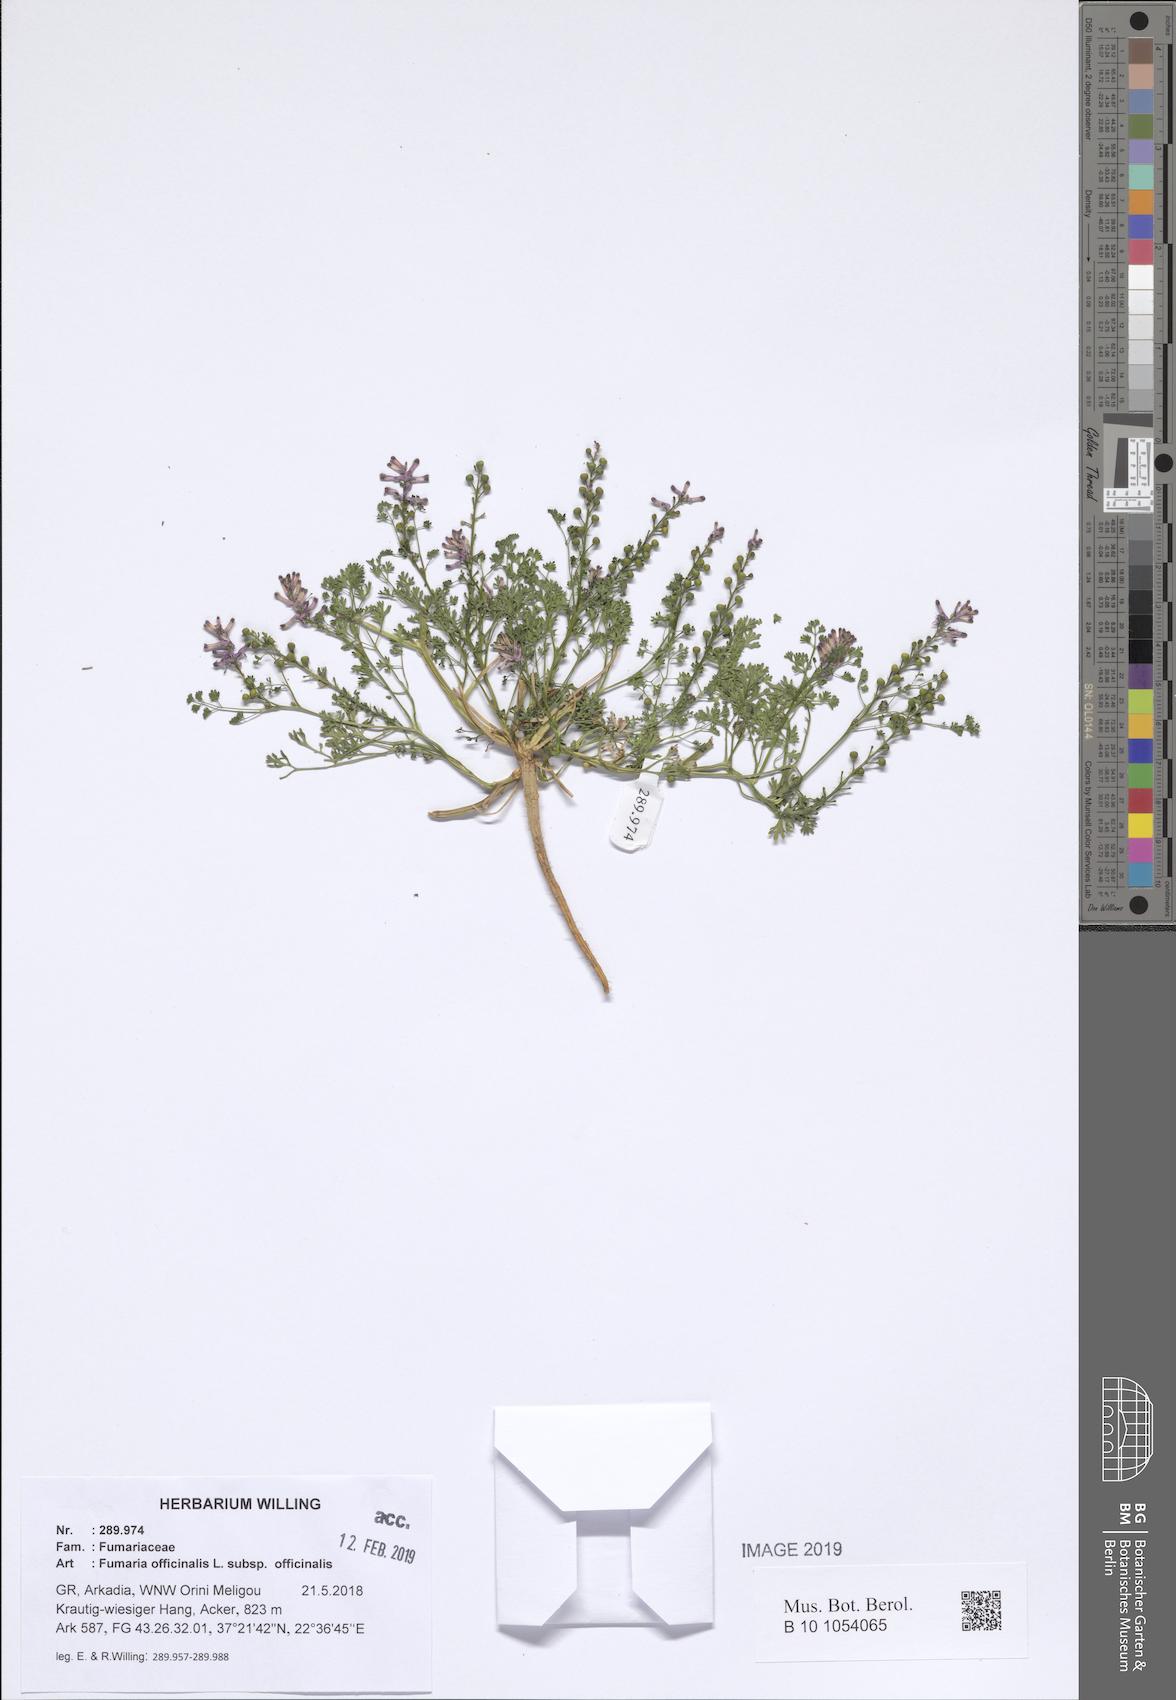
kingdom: Plantae
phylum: Tracheophyta
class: Magnoliopsida
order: Ranunculales
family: Papaveraceae
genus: Fumaria
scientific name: Fumaria officinalis
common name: Common fumitory
